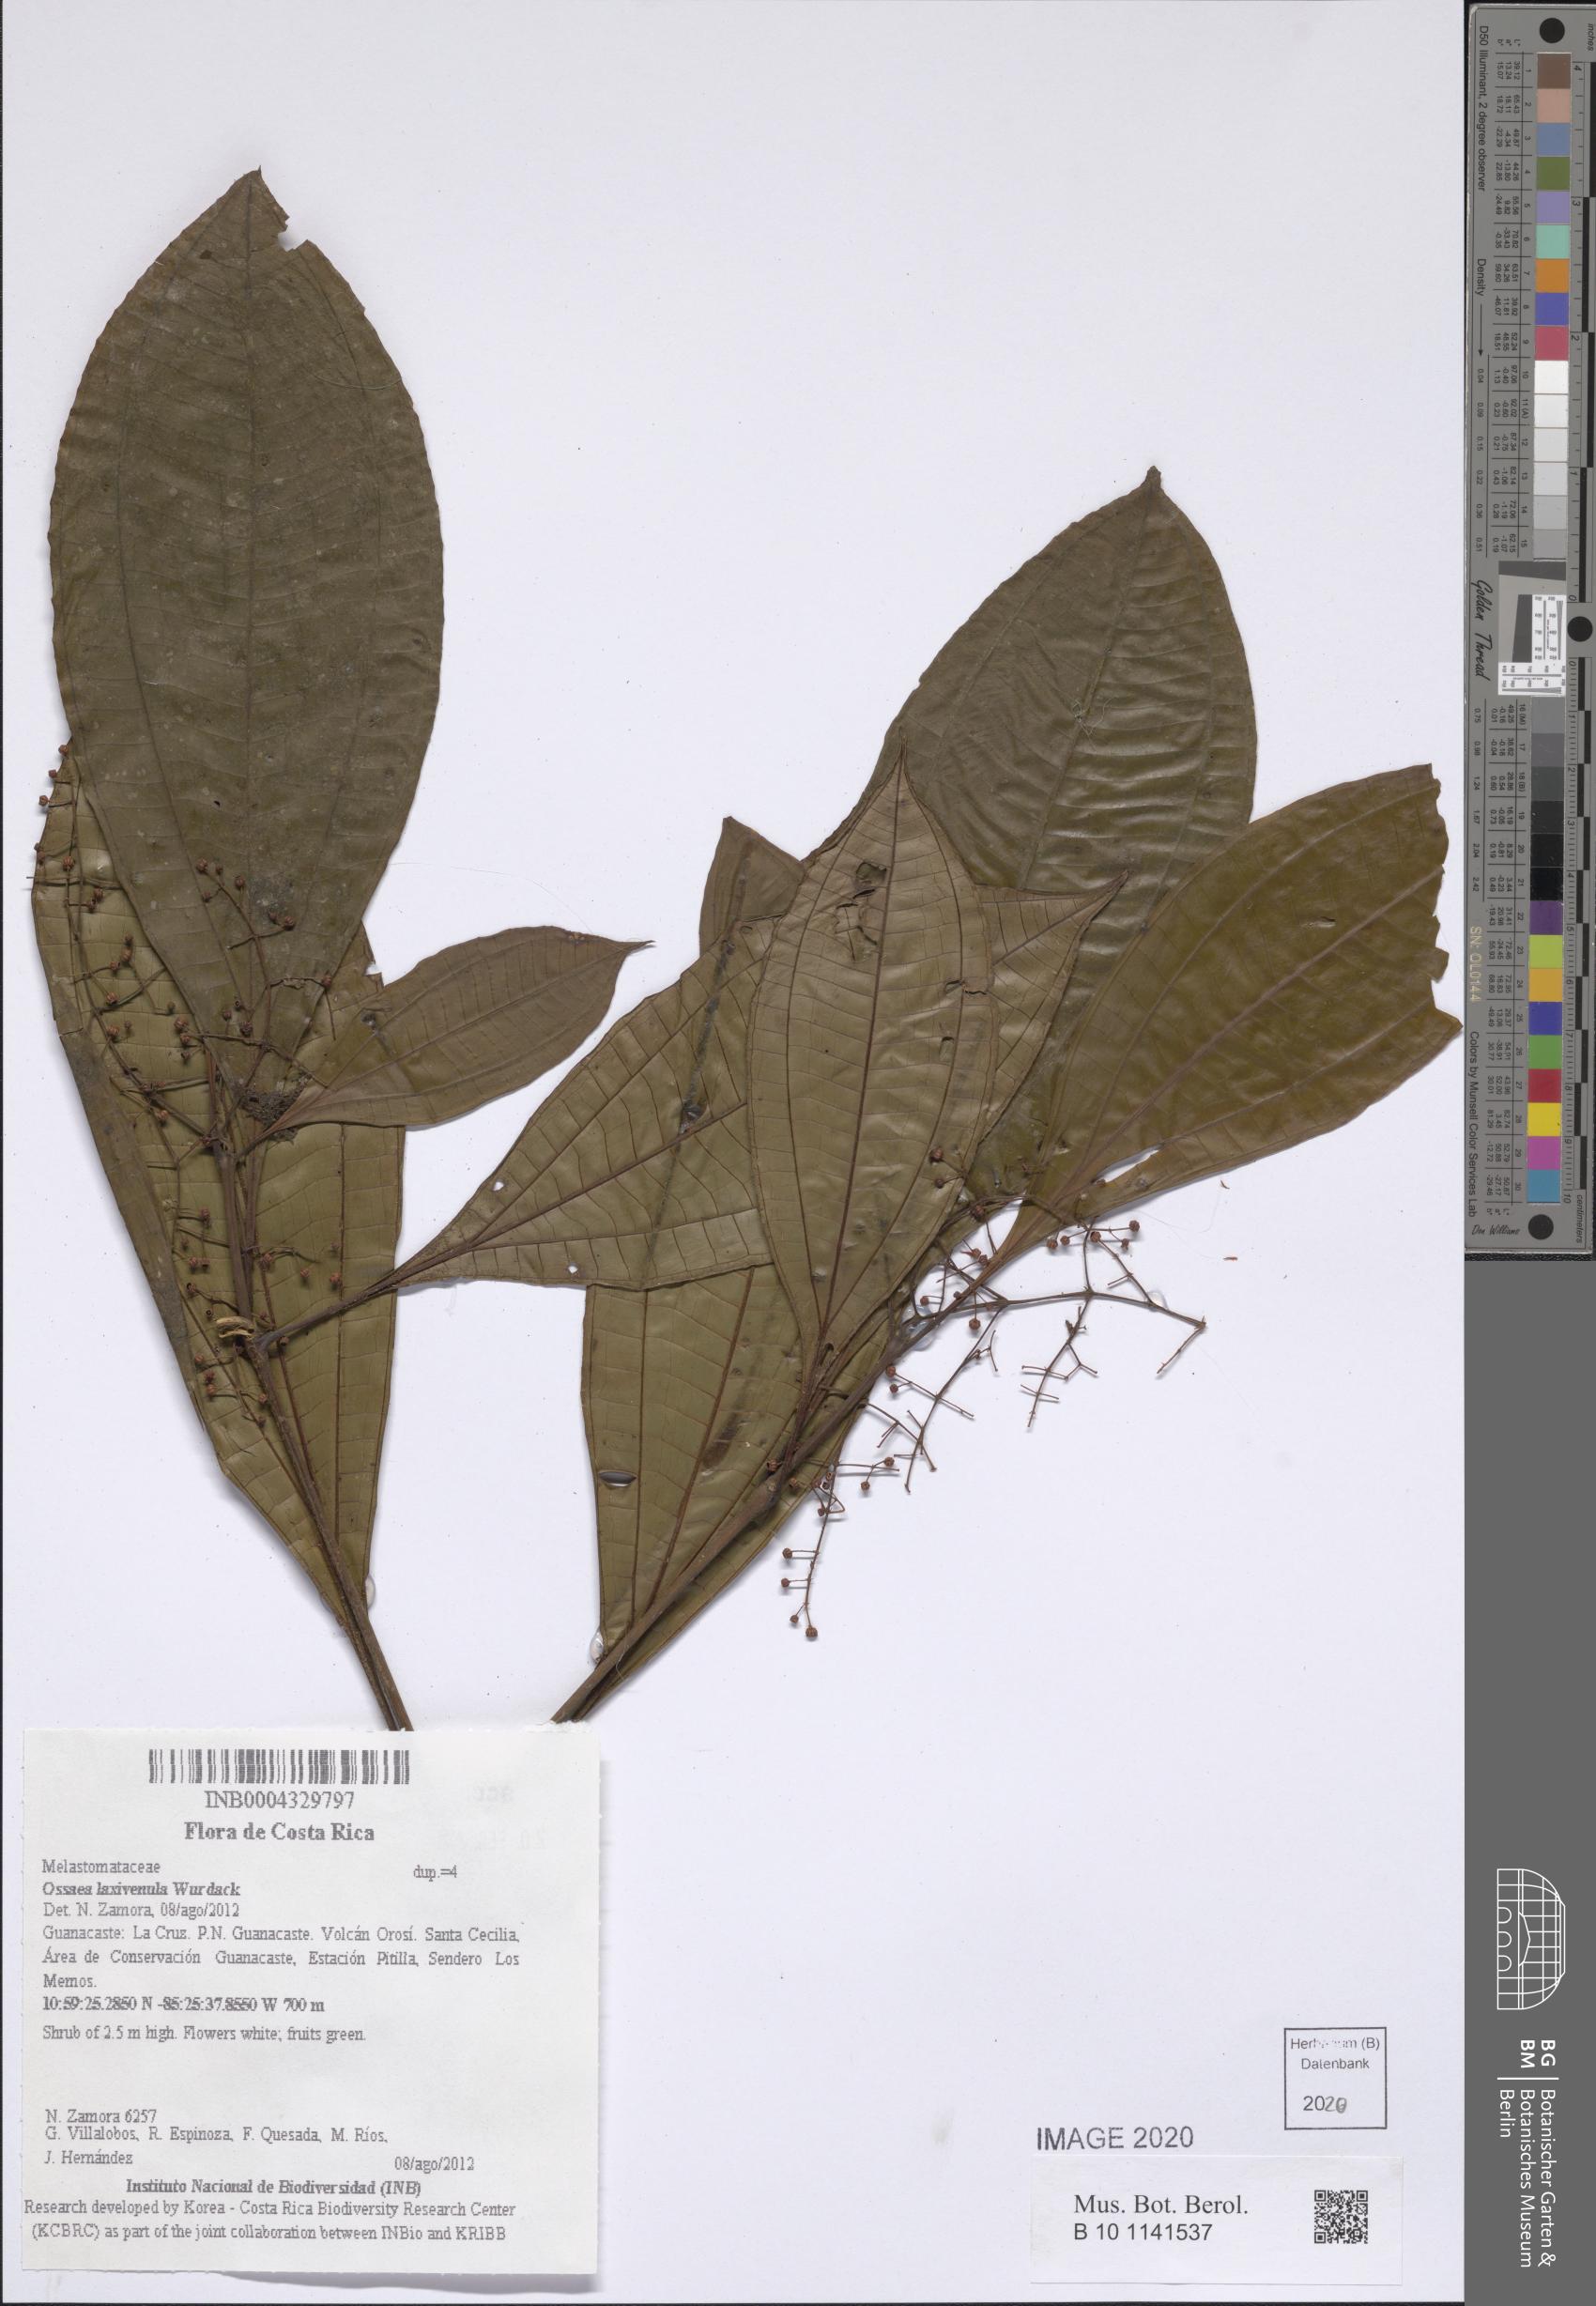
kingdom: Plantae
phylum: Tracheophyta
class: Magnoliopsida
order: Myrtales
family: Melastomataceae
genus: Miconia
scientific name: Miconia laxivenula
